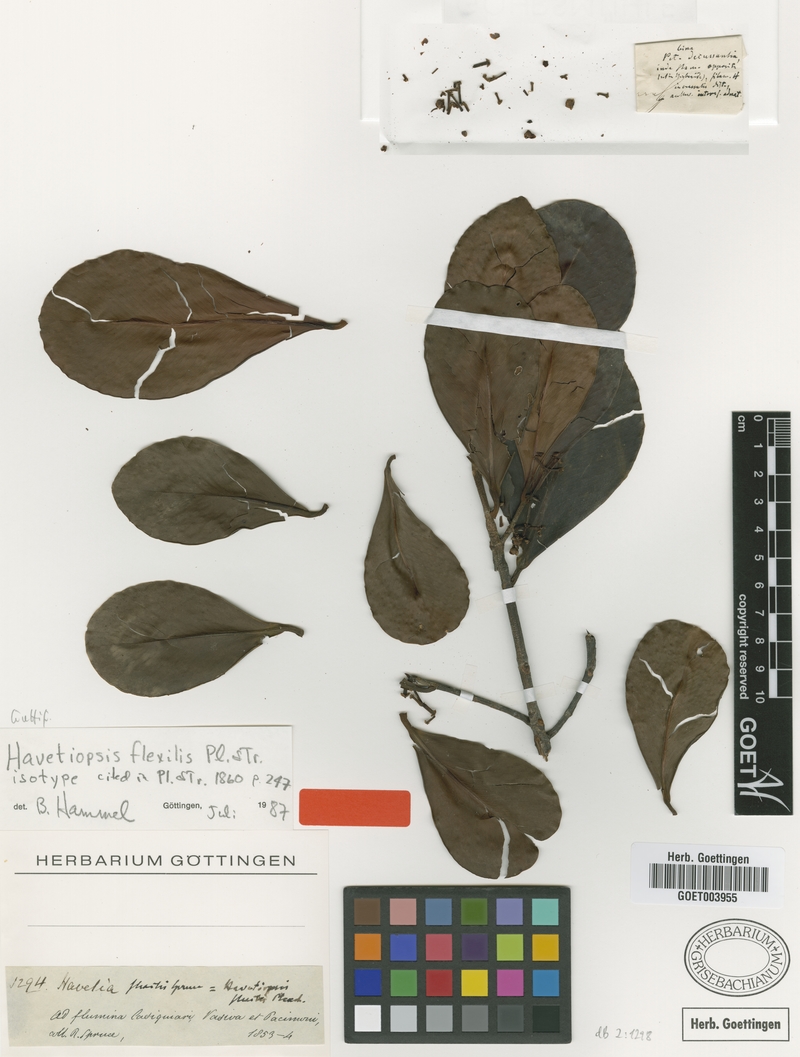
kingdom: Plantae
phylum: Tracheophyta
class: Magnoliopsida
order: Malpighiales
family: Clusiaceae
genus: Clusia
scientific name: Clusia flavida
